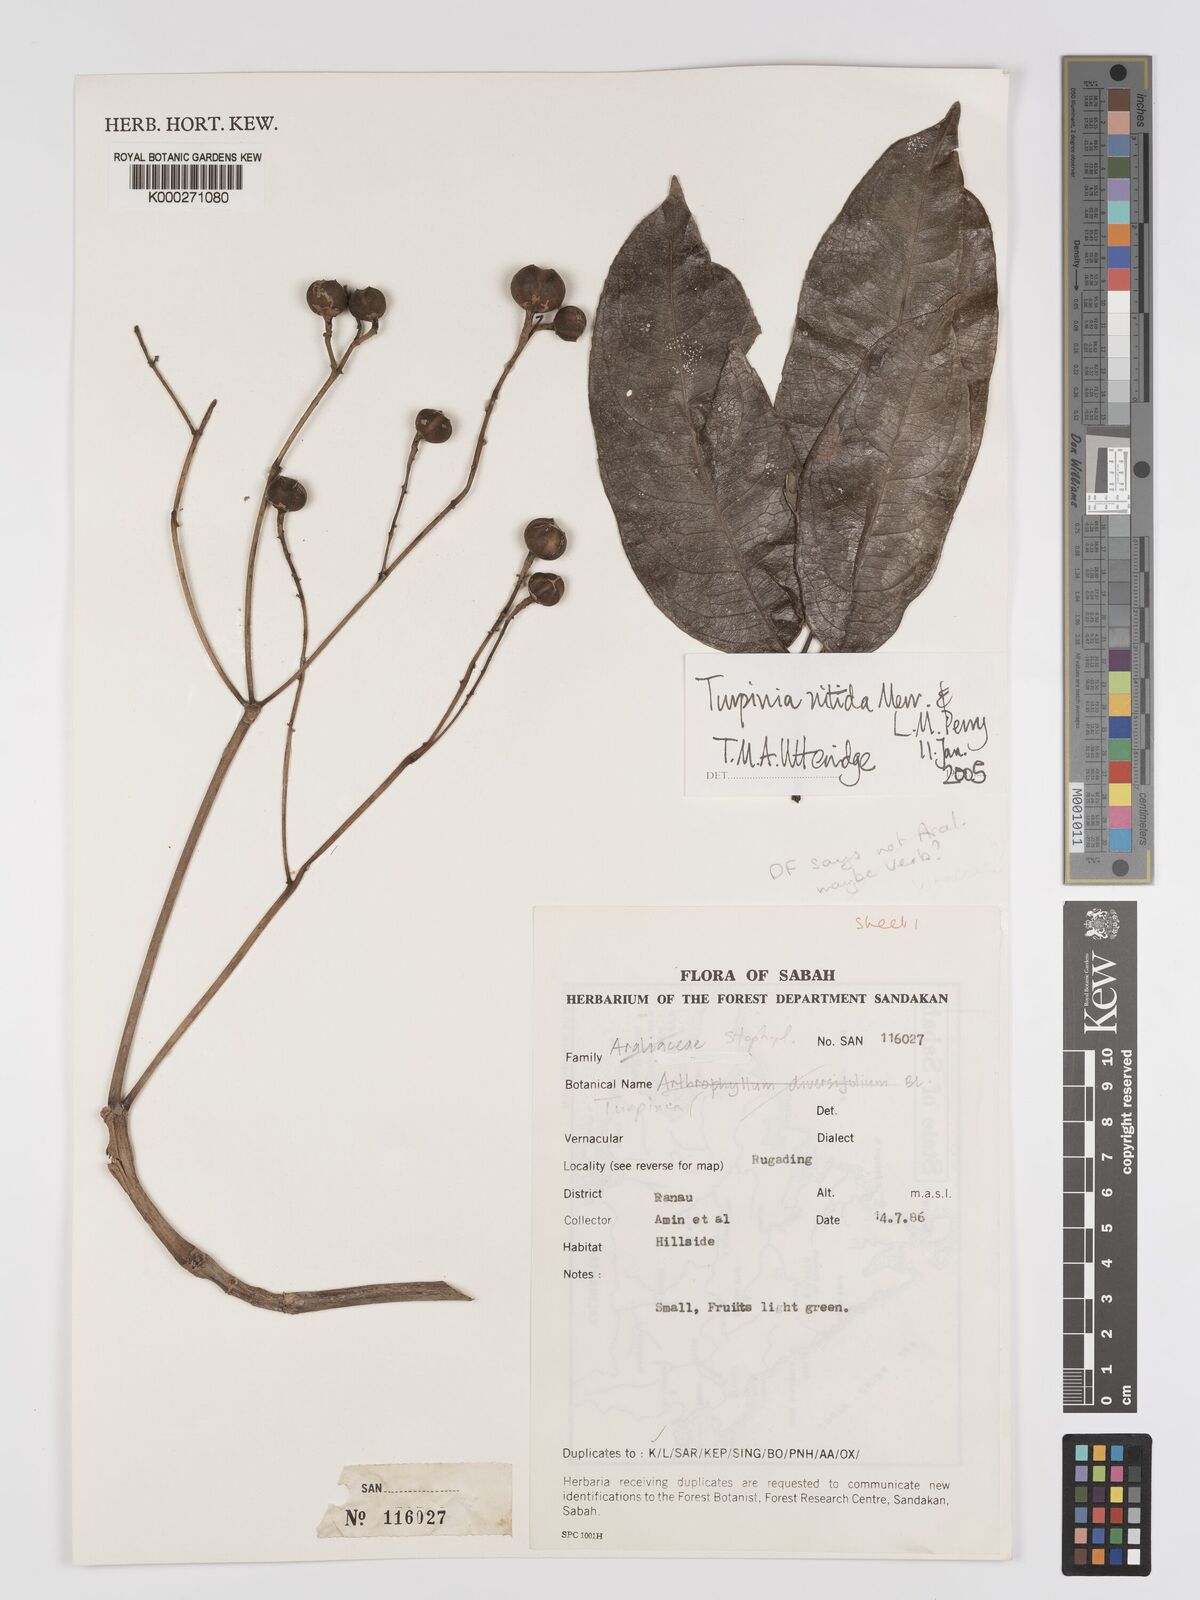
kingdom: Plantae
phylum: Tracheophyta
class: Magnoliopsida
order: Crossosomatales
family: Staphyleaceae
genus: Dalrympelea
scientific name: Dalrympelea nitida
